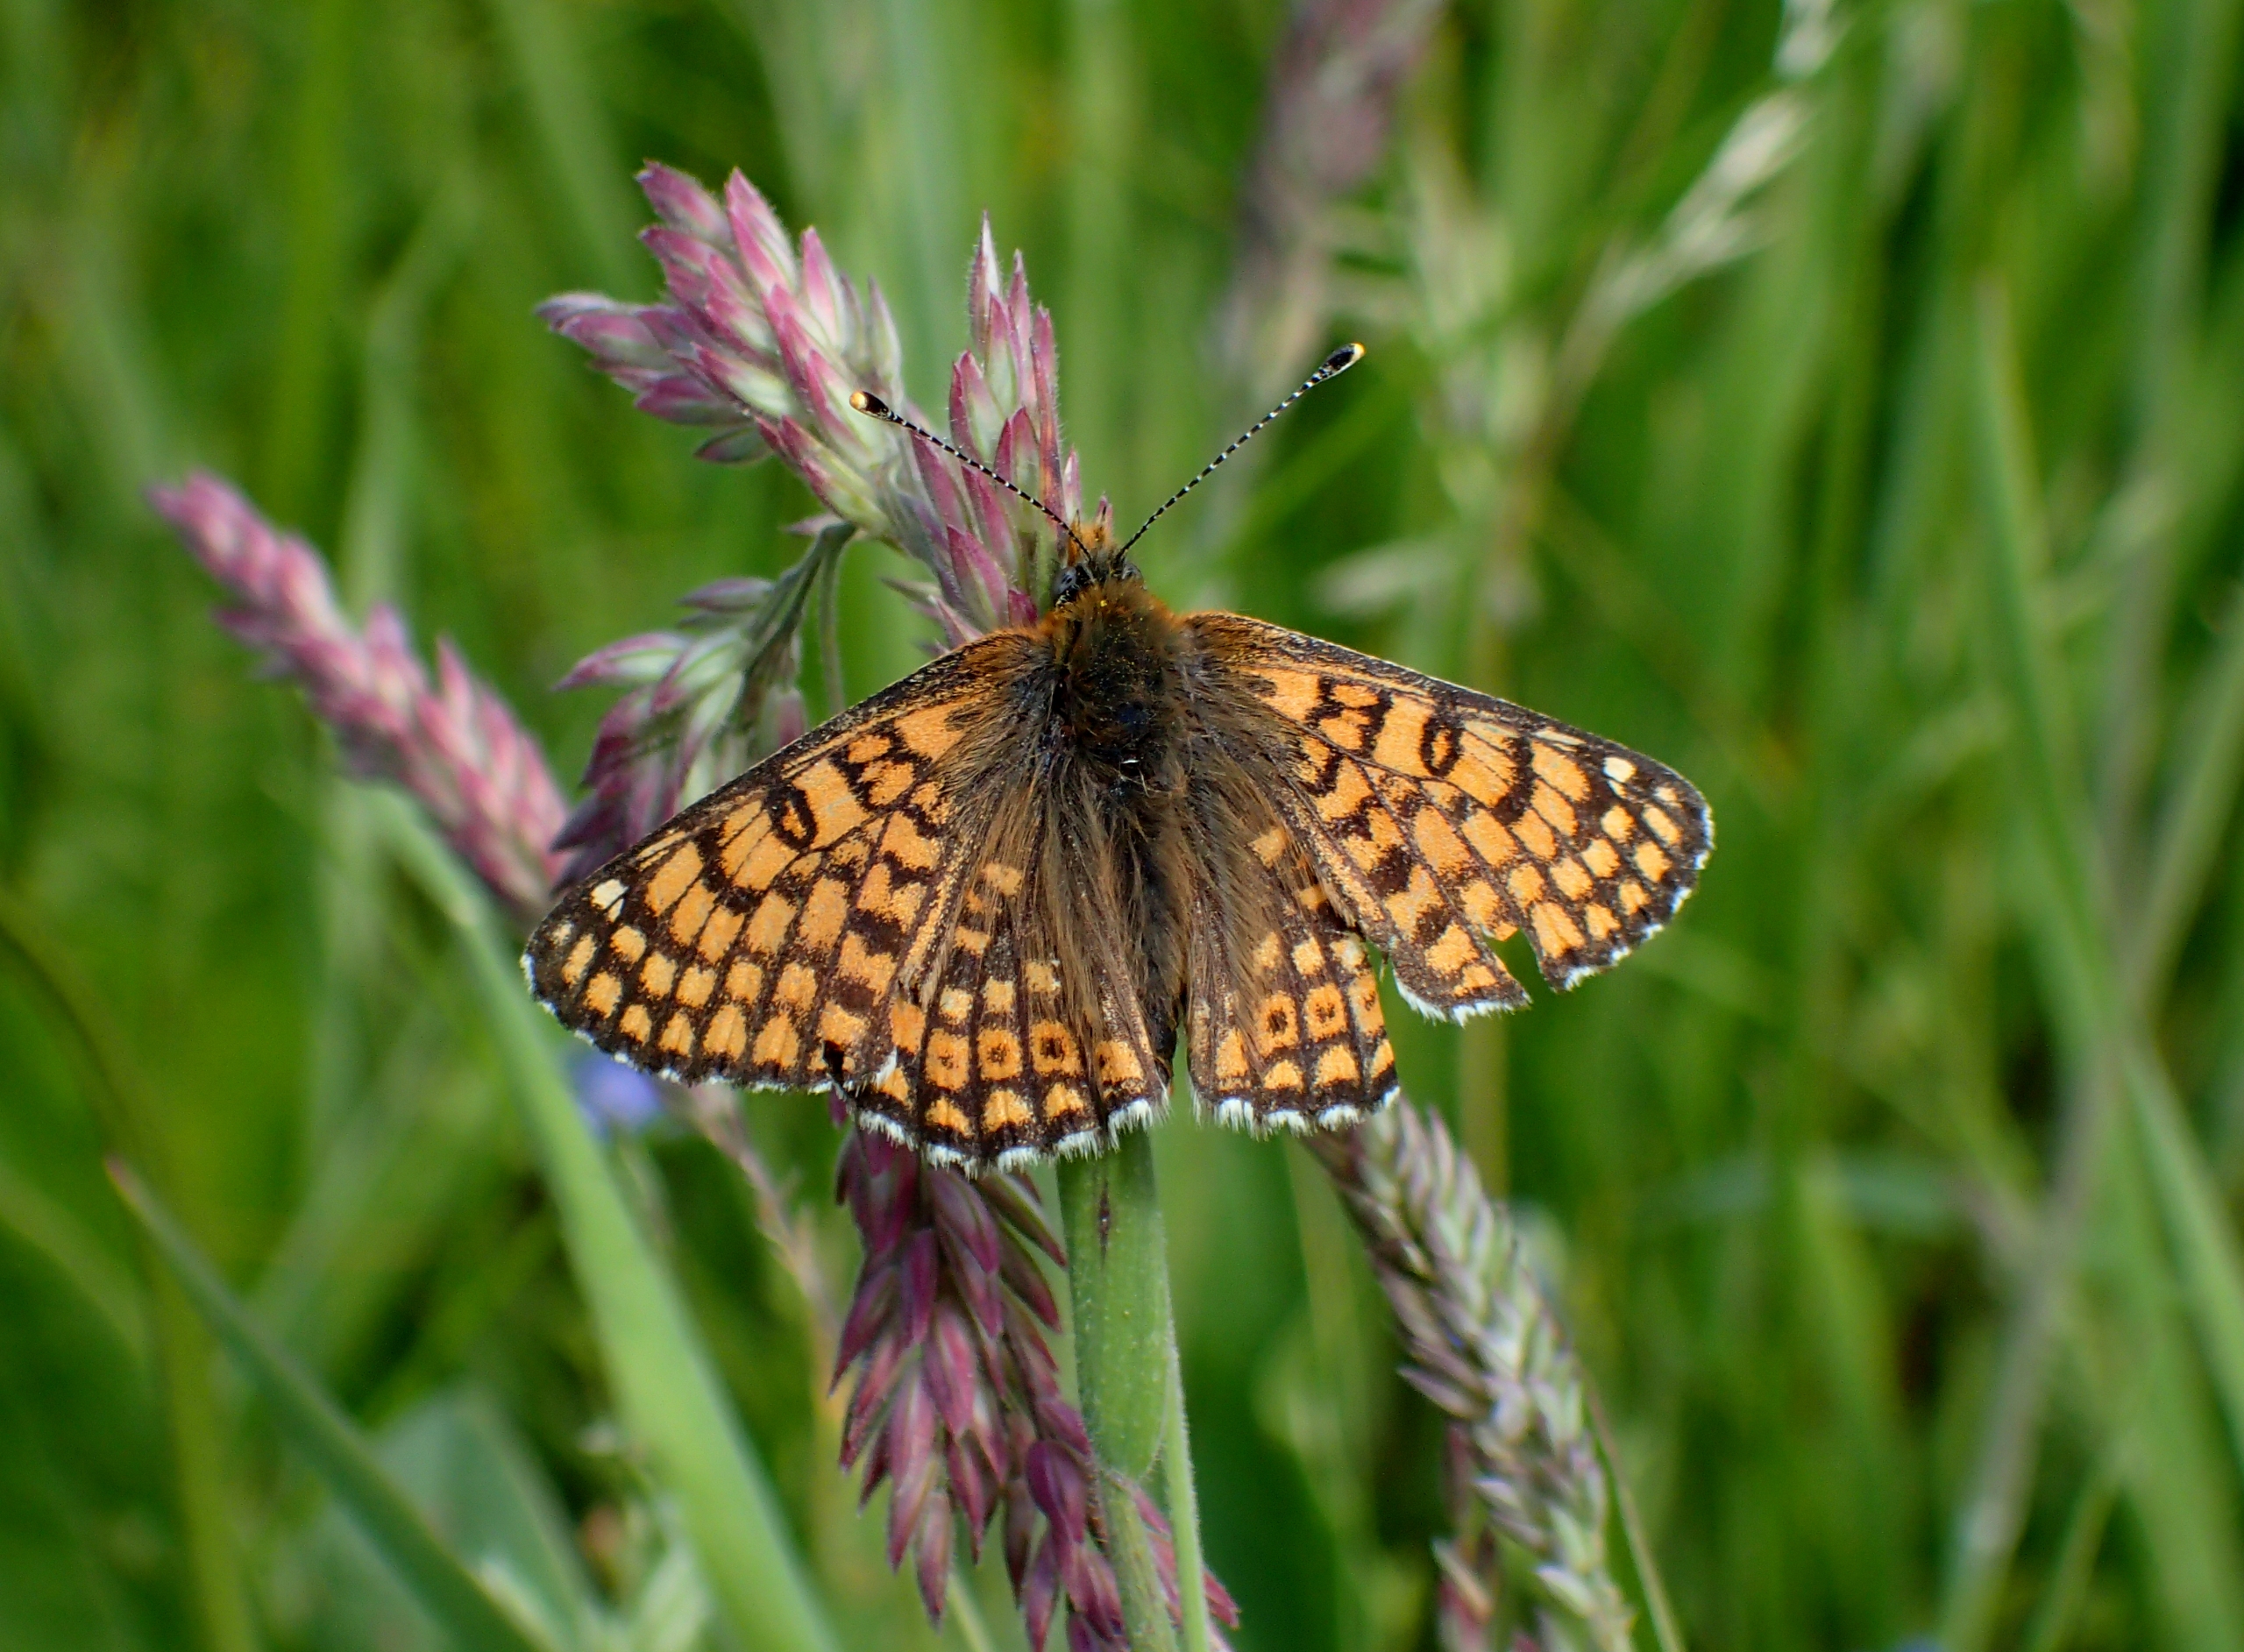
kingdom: Animalia
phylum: Arthropoda
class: Insecta
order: Lepidoptera
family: Nymphalidae
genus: Melitaea
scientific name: Melitaea cinxia
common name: Okkergul pletvinge
